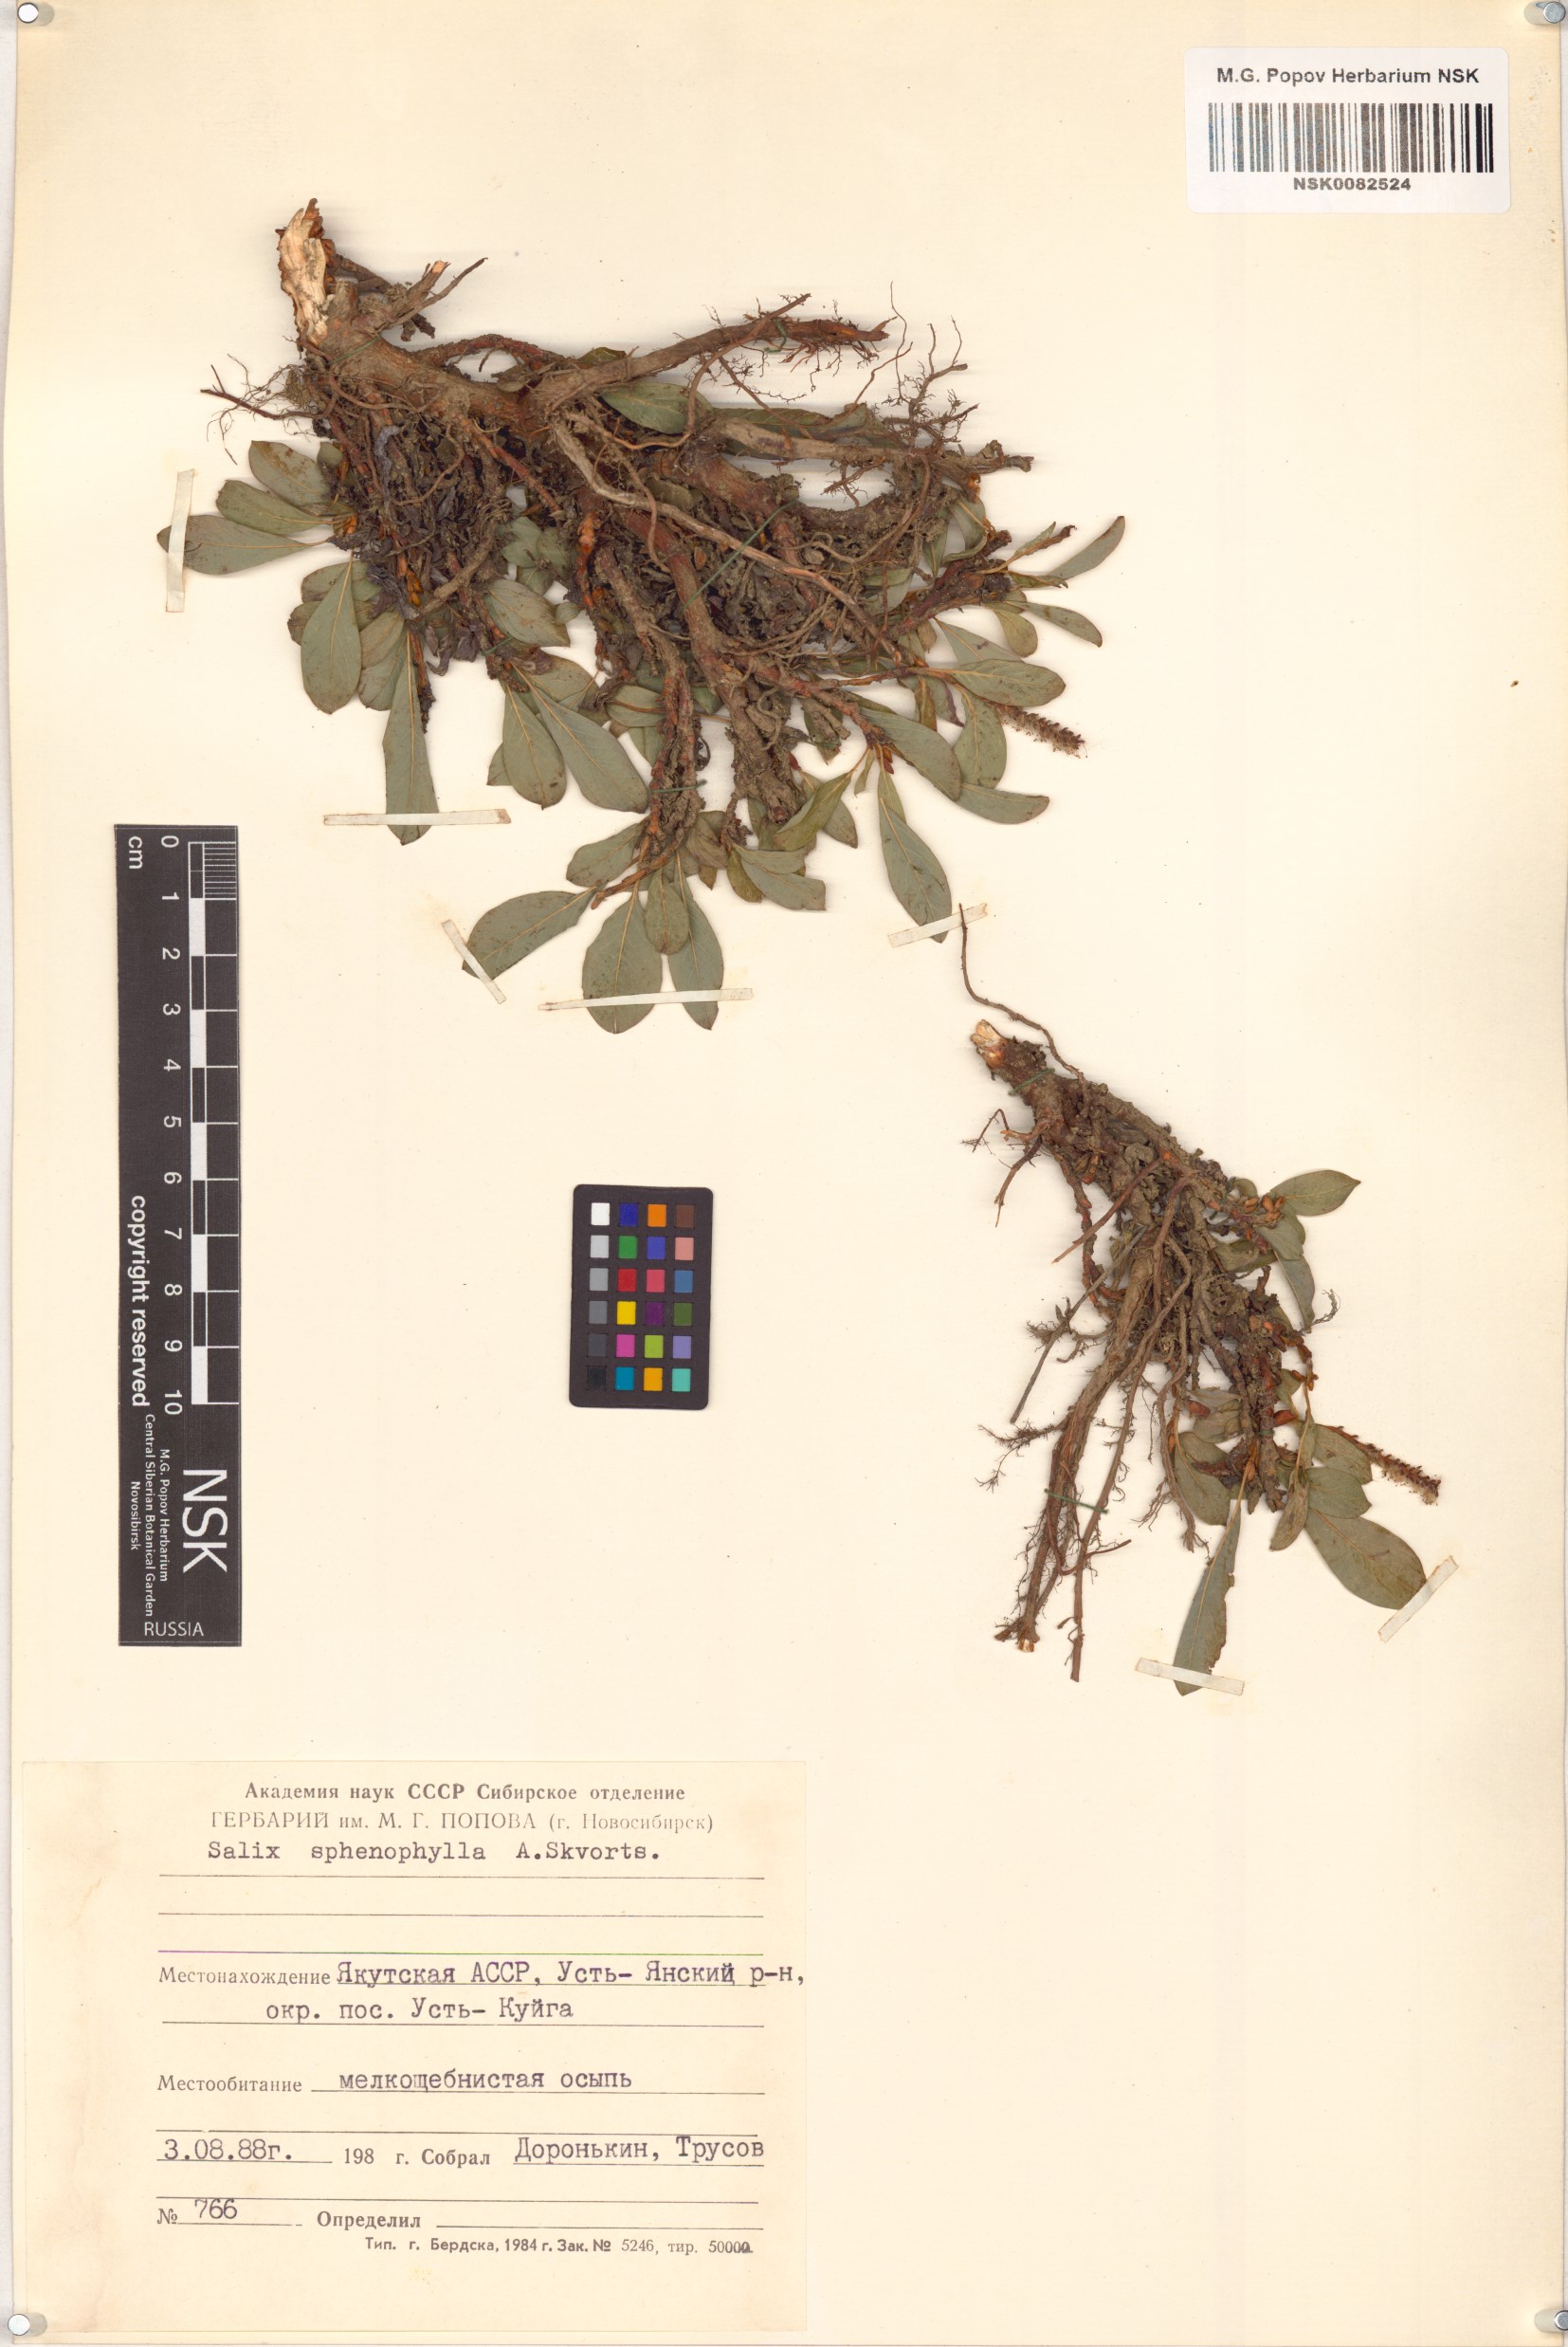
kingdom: Plantae
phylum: Tracheophyta
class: Magnoliopsida
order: Malpighiales
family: Salicaceae
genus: Salix
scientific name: Salix sphenophylla
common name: Wedge-leaved willow
